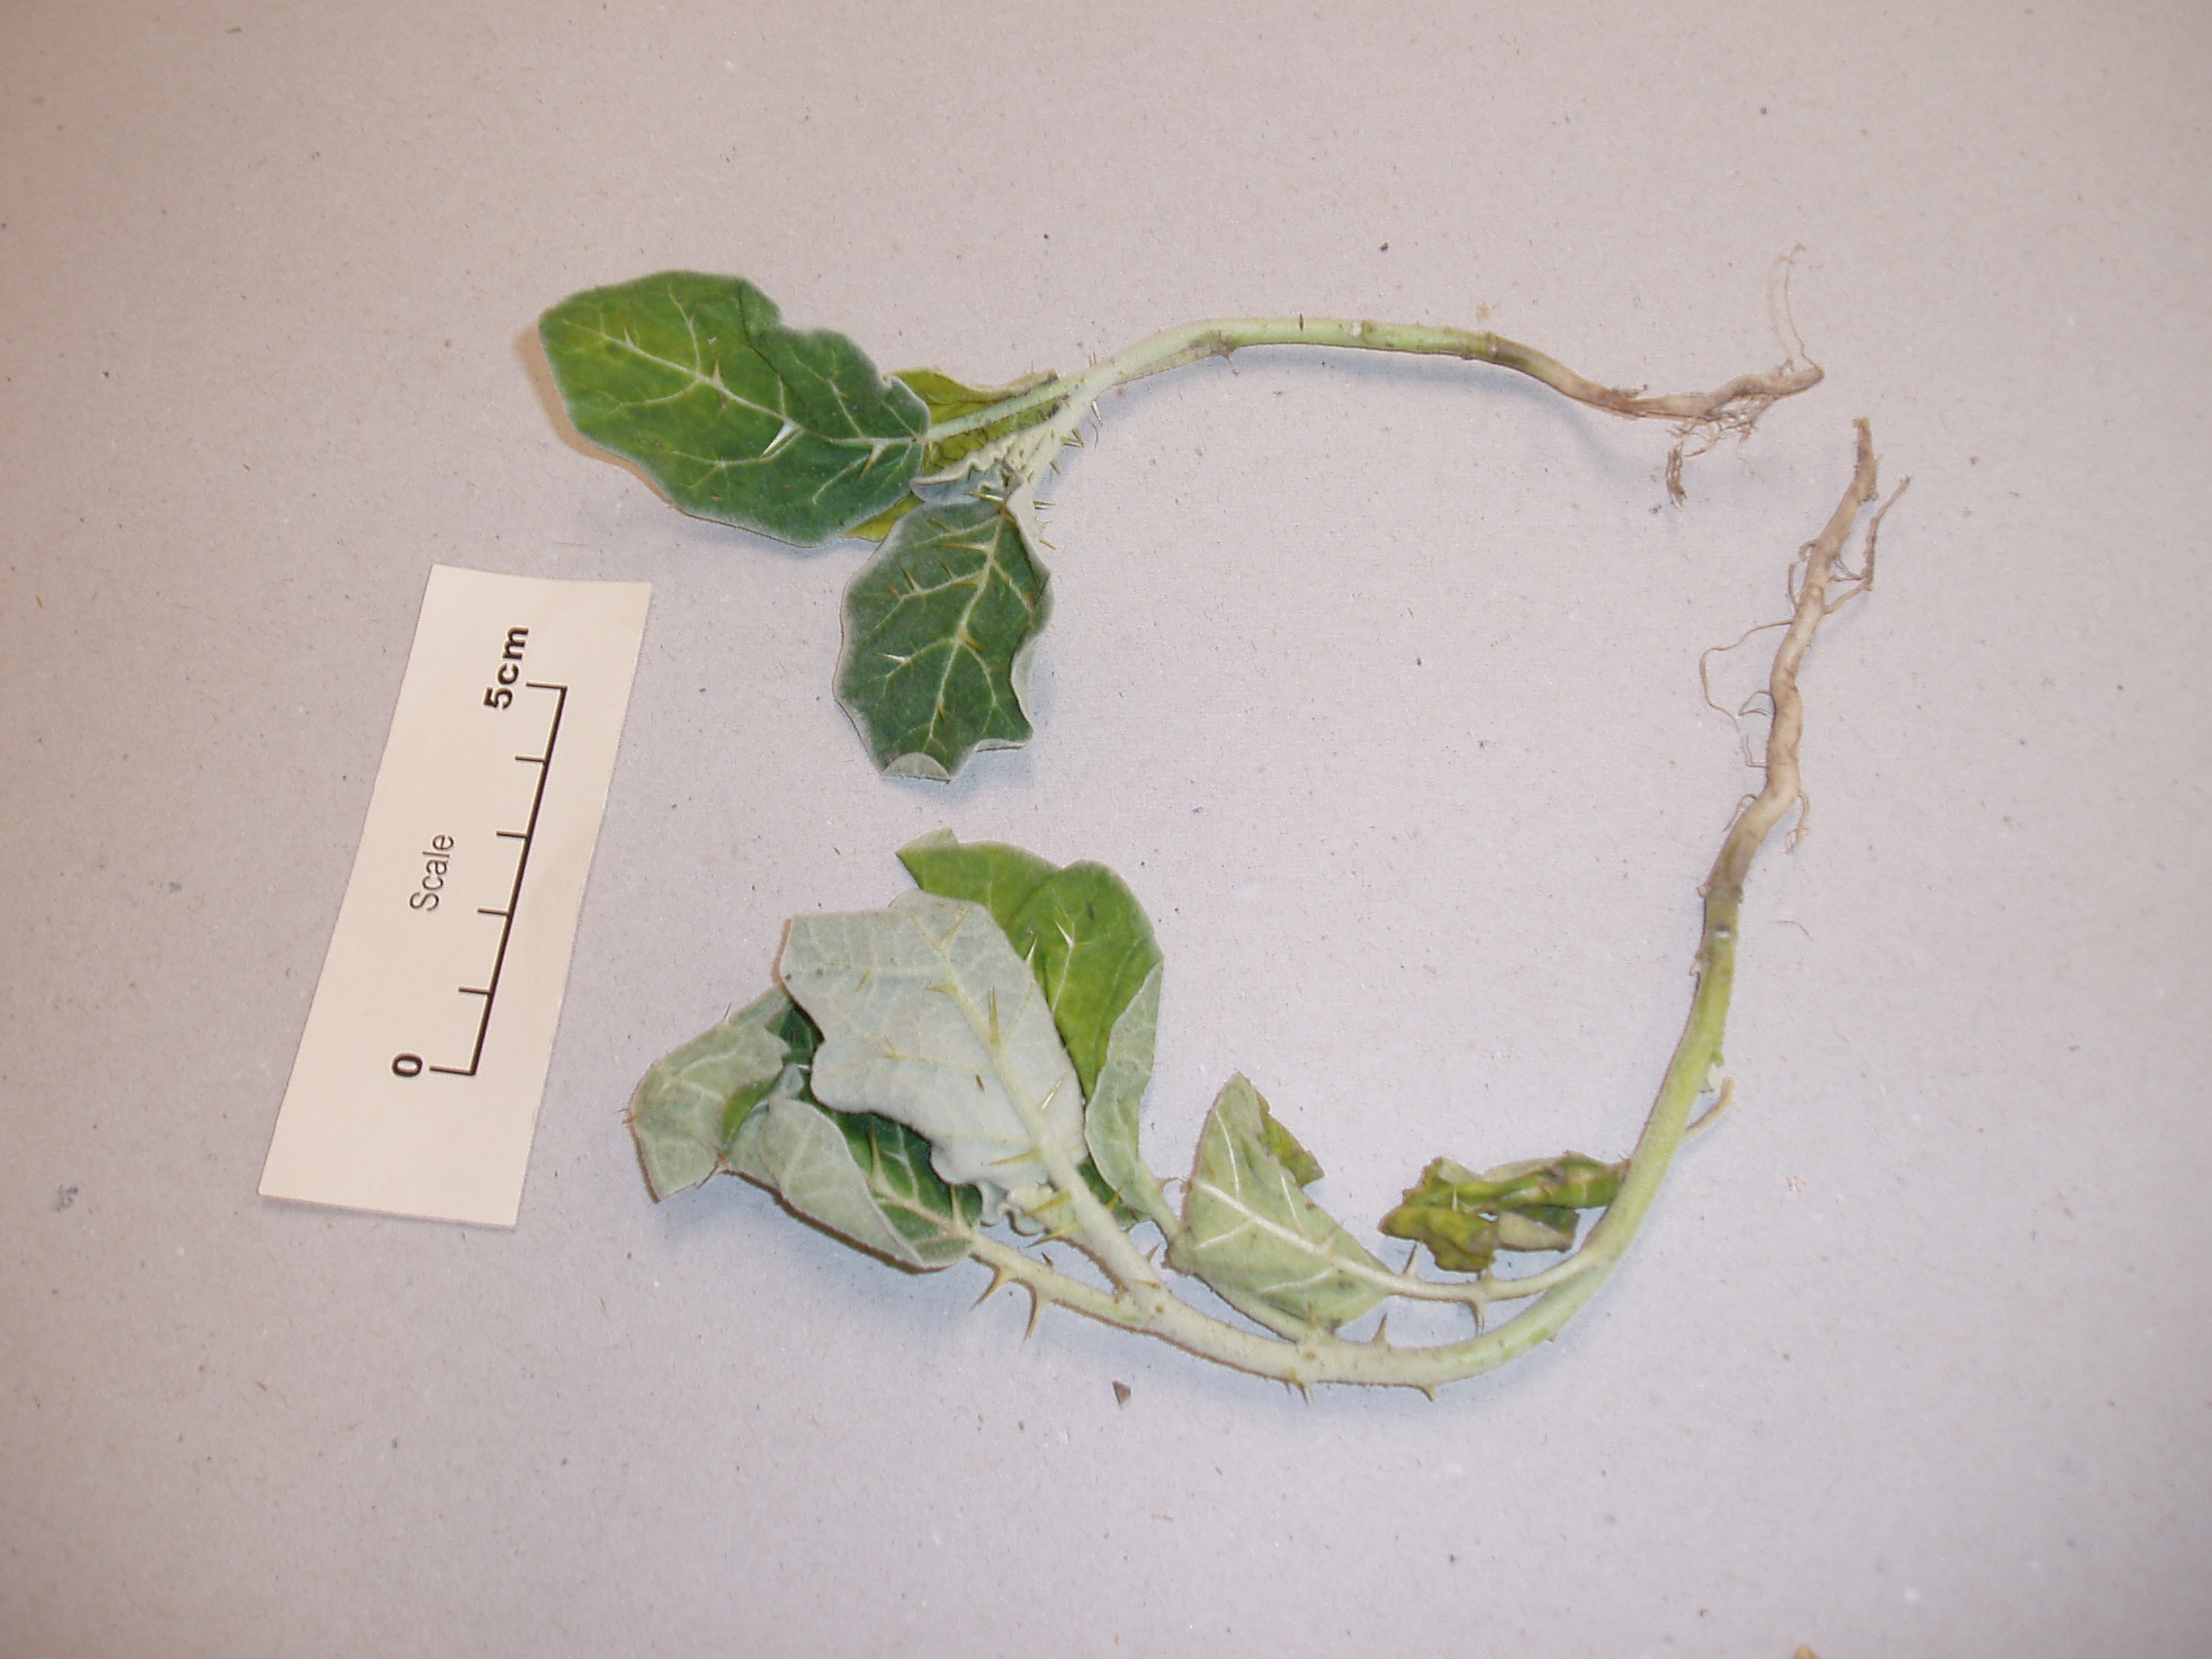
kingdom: Plantae
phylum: Tracheophyta
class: Magnoliopsida
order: Solanales
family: Solanaceae
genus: Solanum
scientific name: Solanum marginatum
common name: Purple african nightshade
